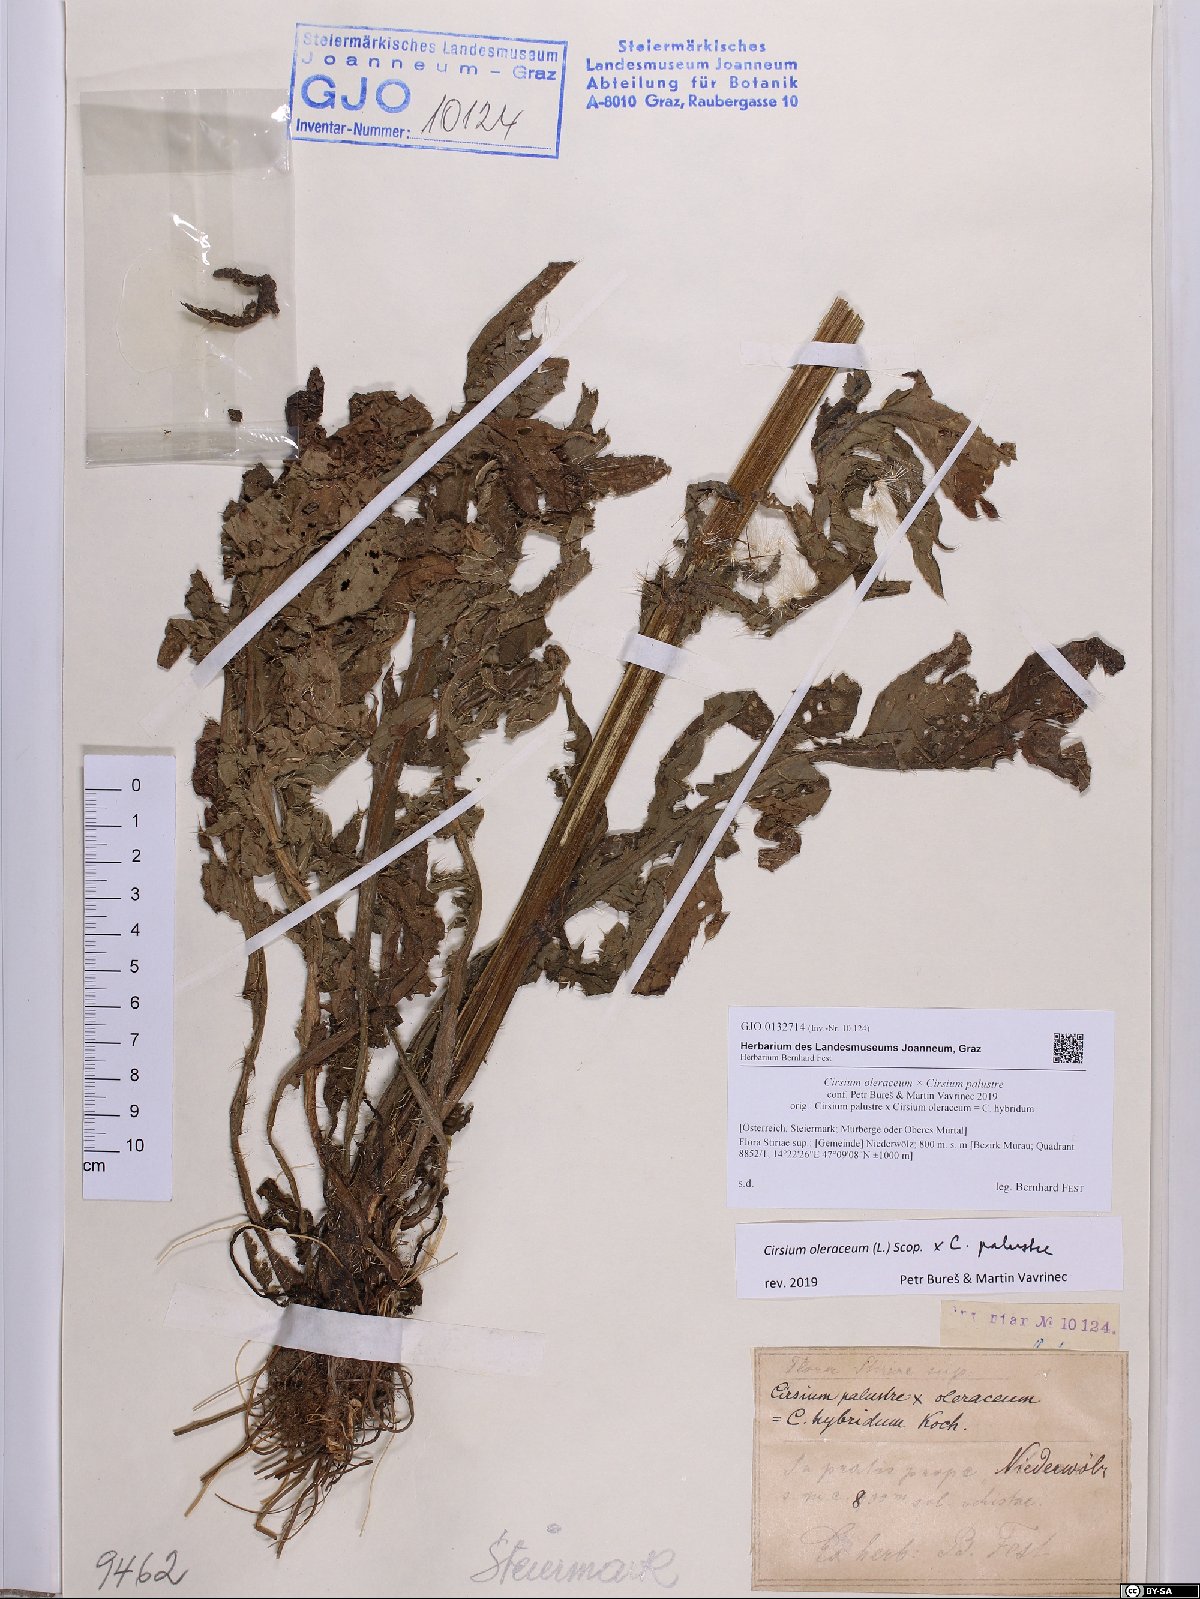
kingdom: Plantae
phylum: Tracheophyta
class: Magnoliopsida
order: Asterales
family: Asteraceae
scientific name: Asteraceae
